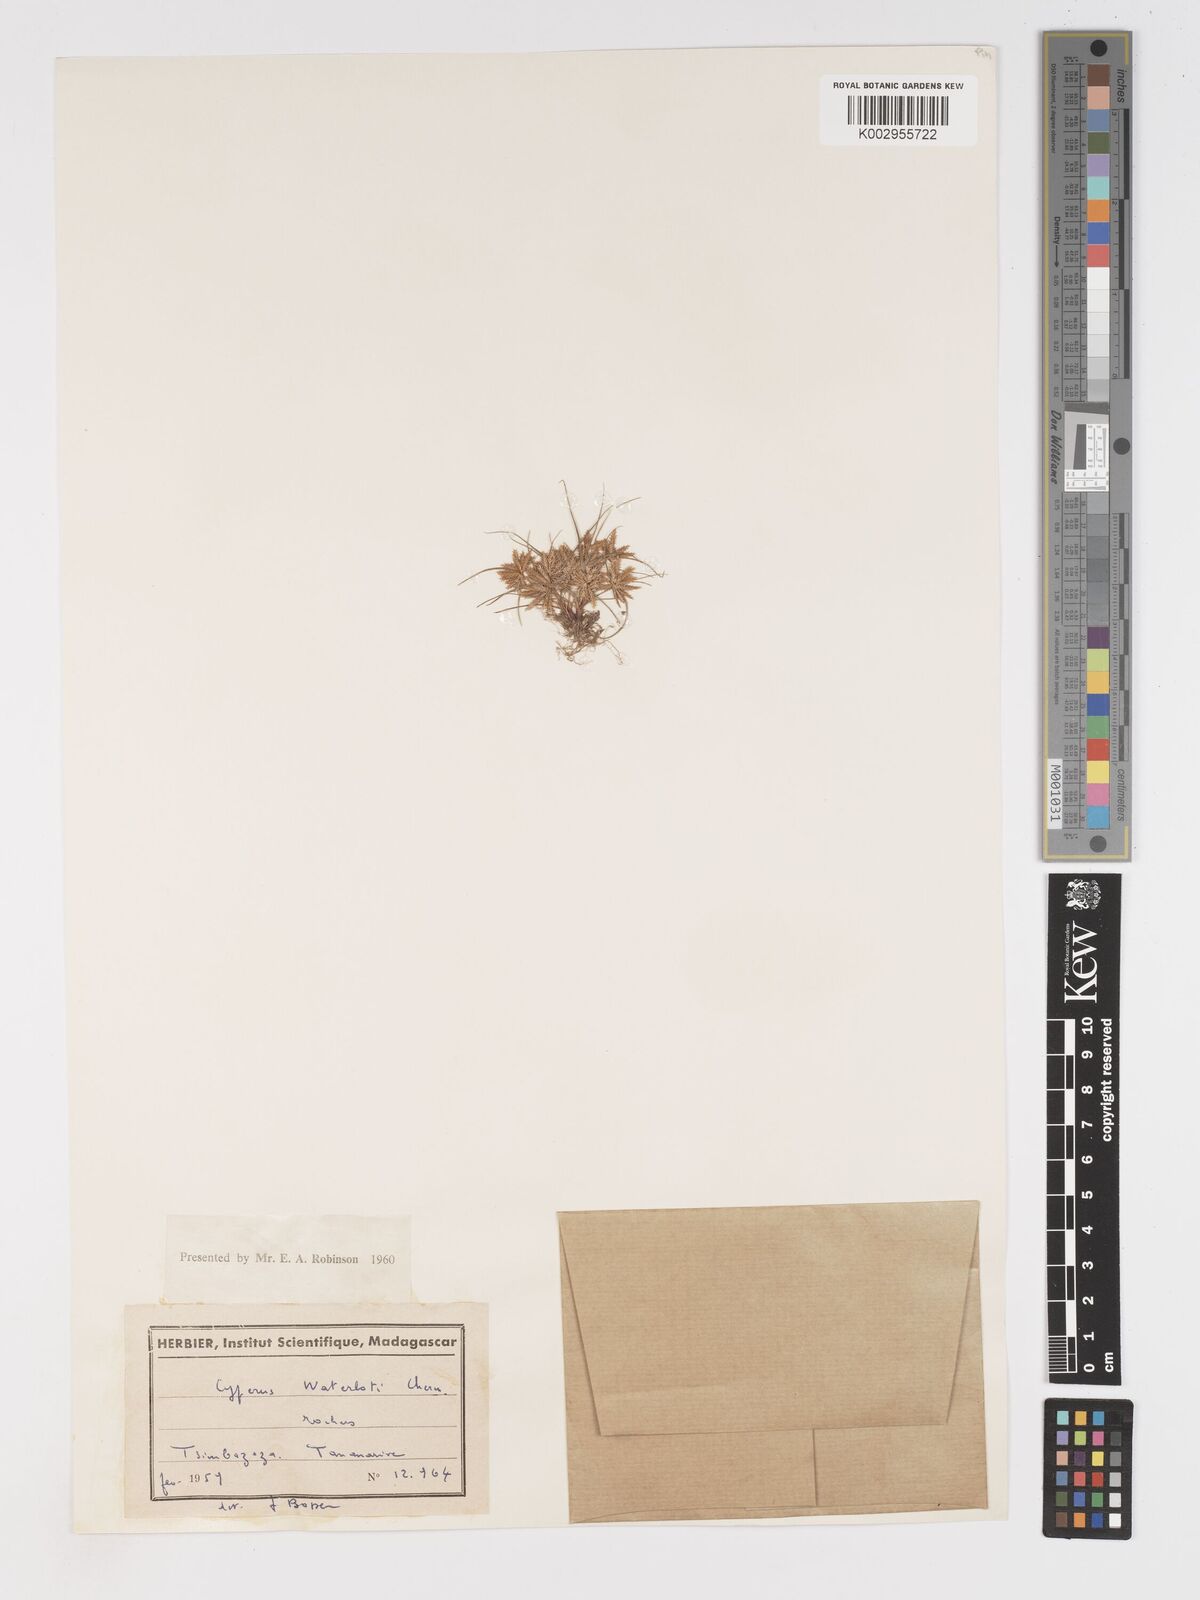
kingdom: Plantae
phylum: Tracheophyta
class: Liliopsida
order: Poales
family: Cyperaceae
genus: Cyperus
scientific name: Cyperus cuspidatus
